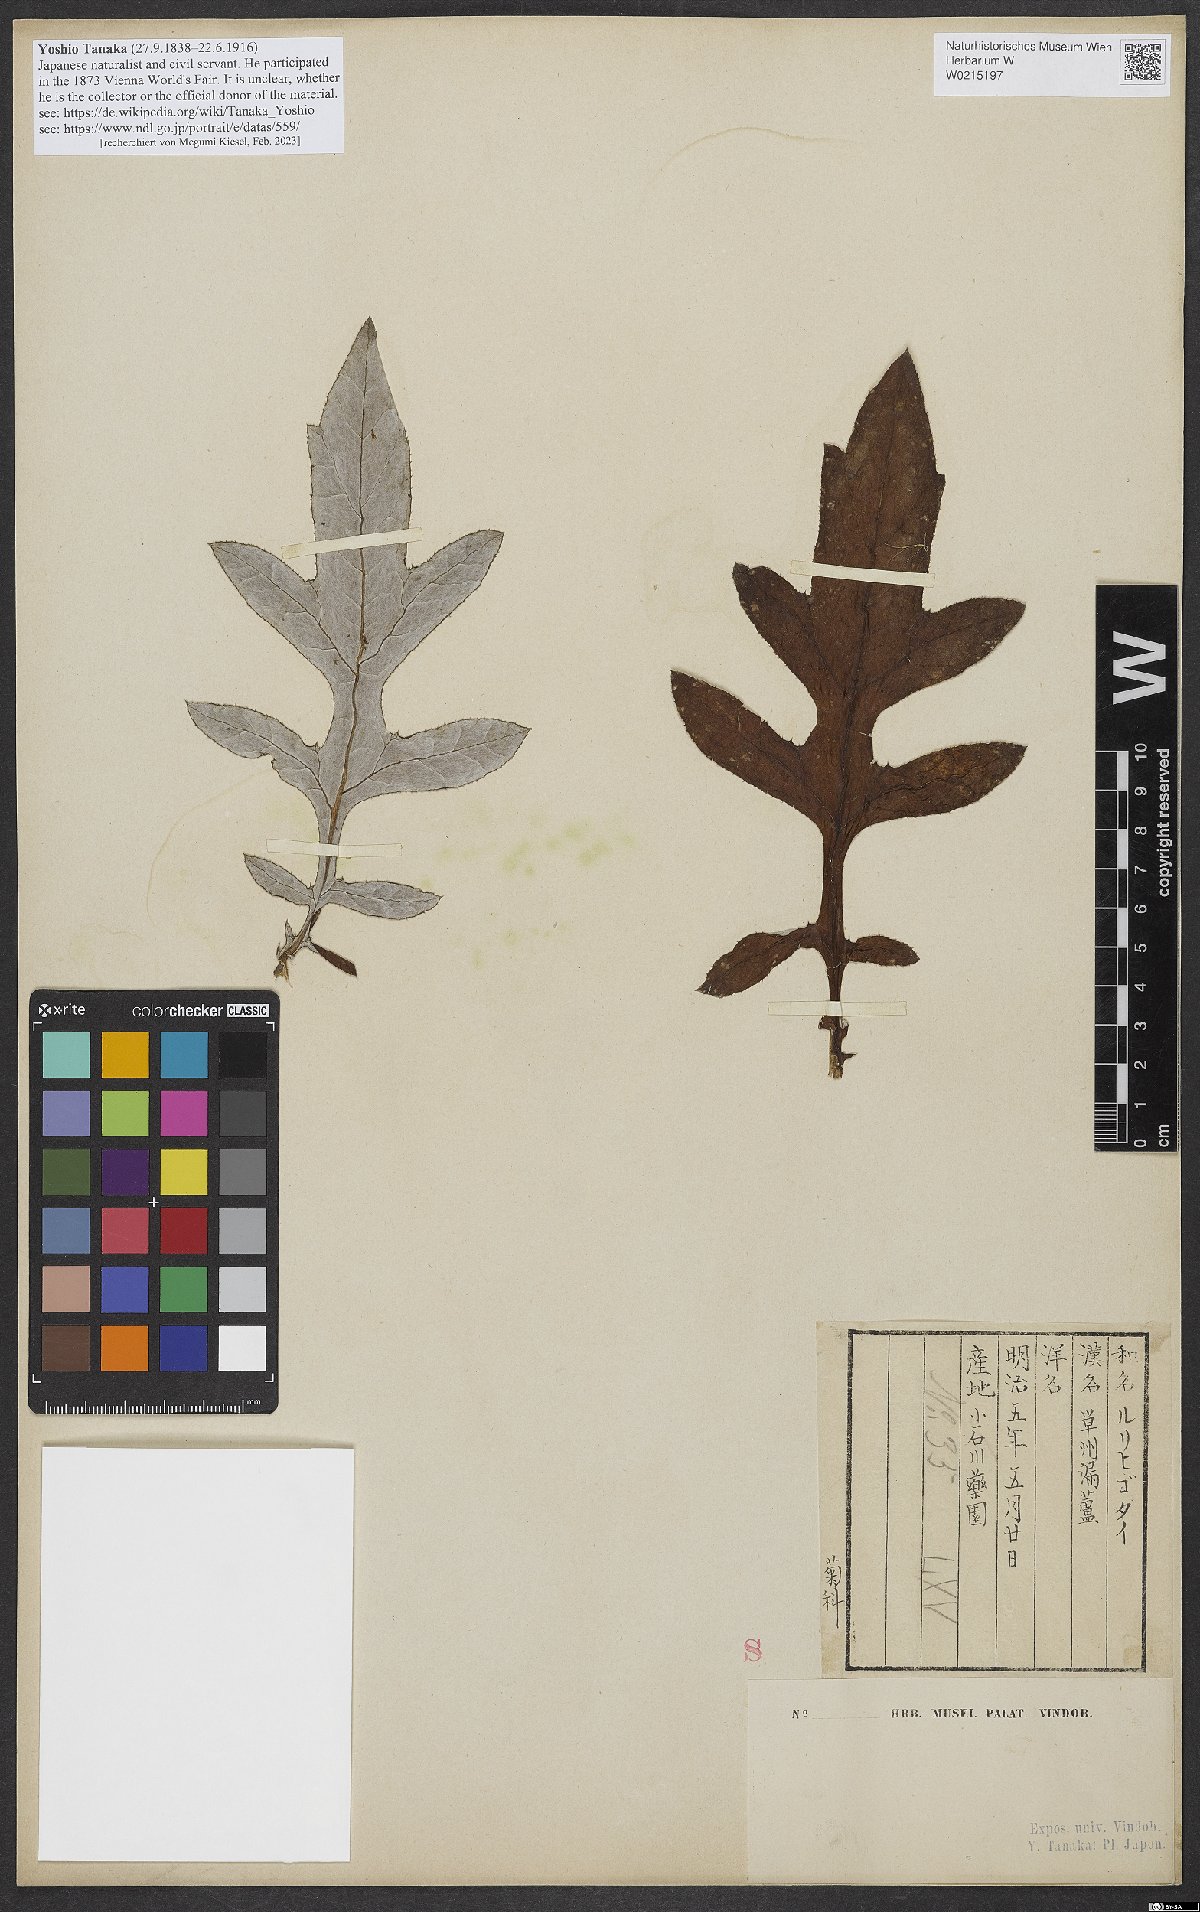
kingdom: Plantae
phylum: Tracheophyta
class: Magnoliopsida
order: Asterales
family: Asteraceae
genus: Echinops
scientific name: Echinops setifer
